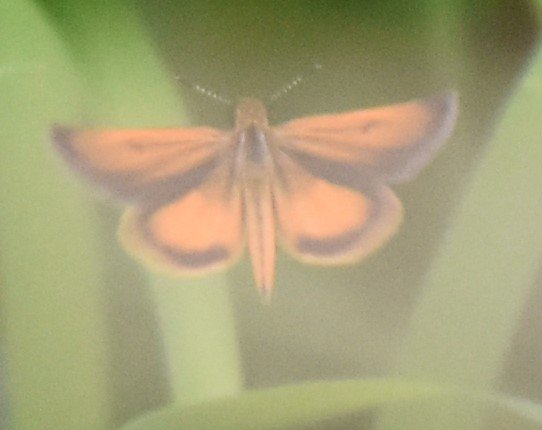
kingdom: Animalia
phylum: Arthropoda
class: Insecta
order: Lepidoptera
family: Hesperiidae
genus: Ancyloxypha
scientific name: Ancyloxypha numitor
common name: Least Skipper
